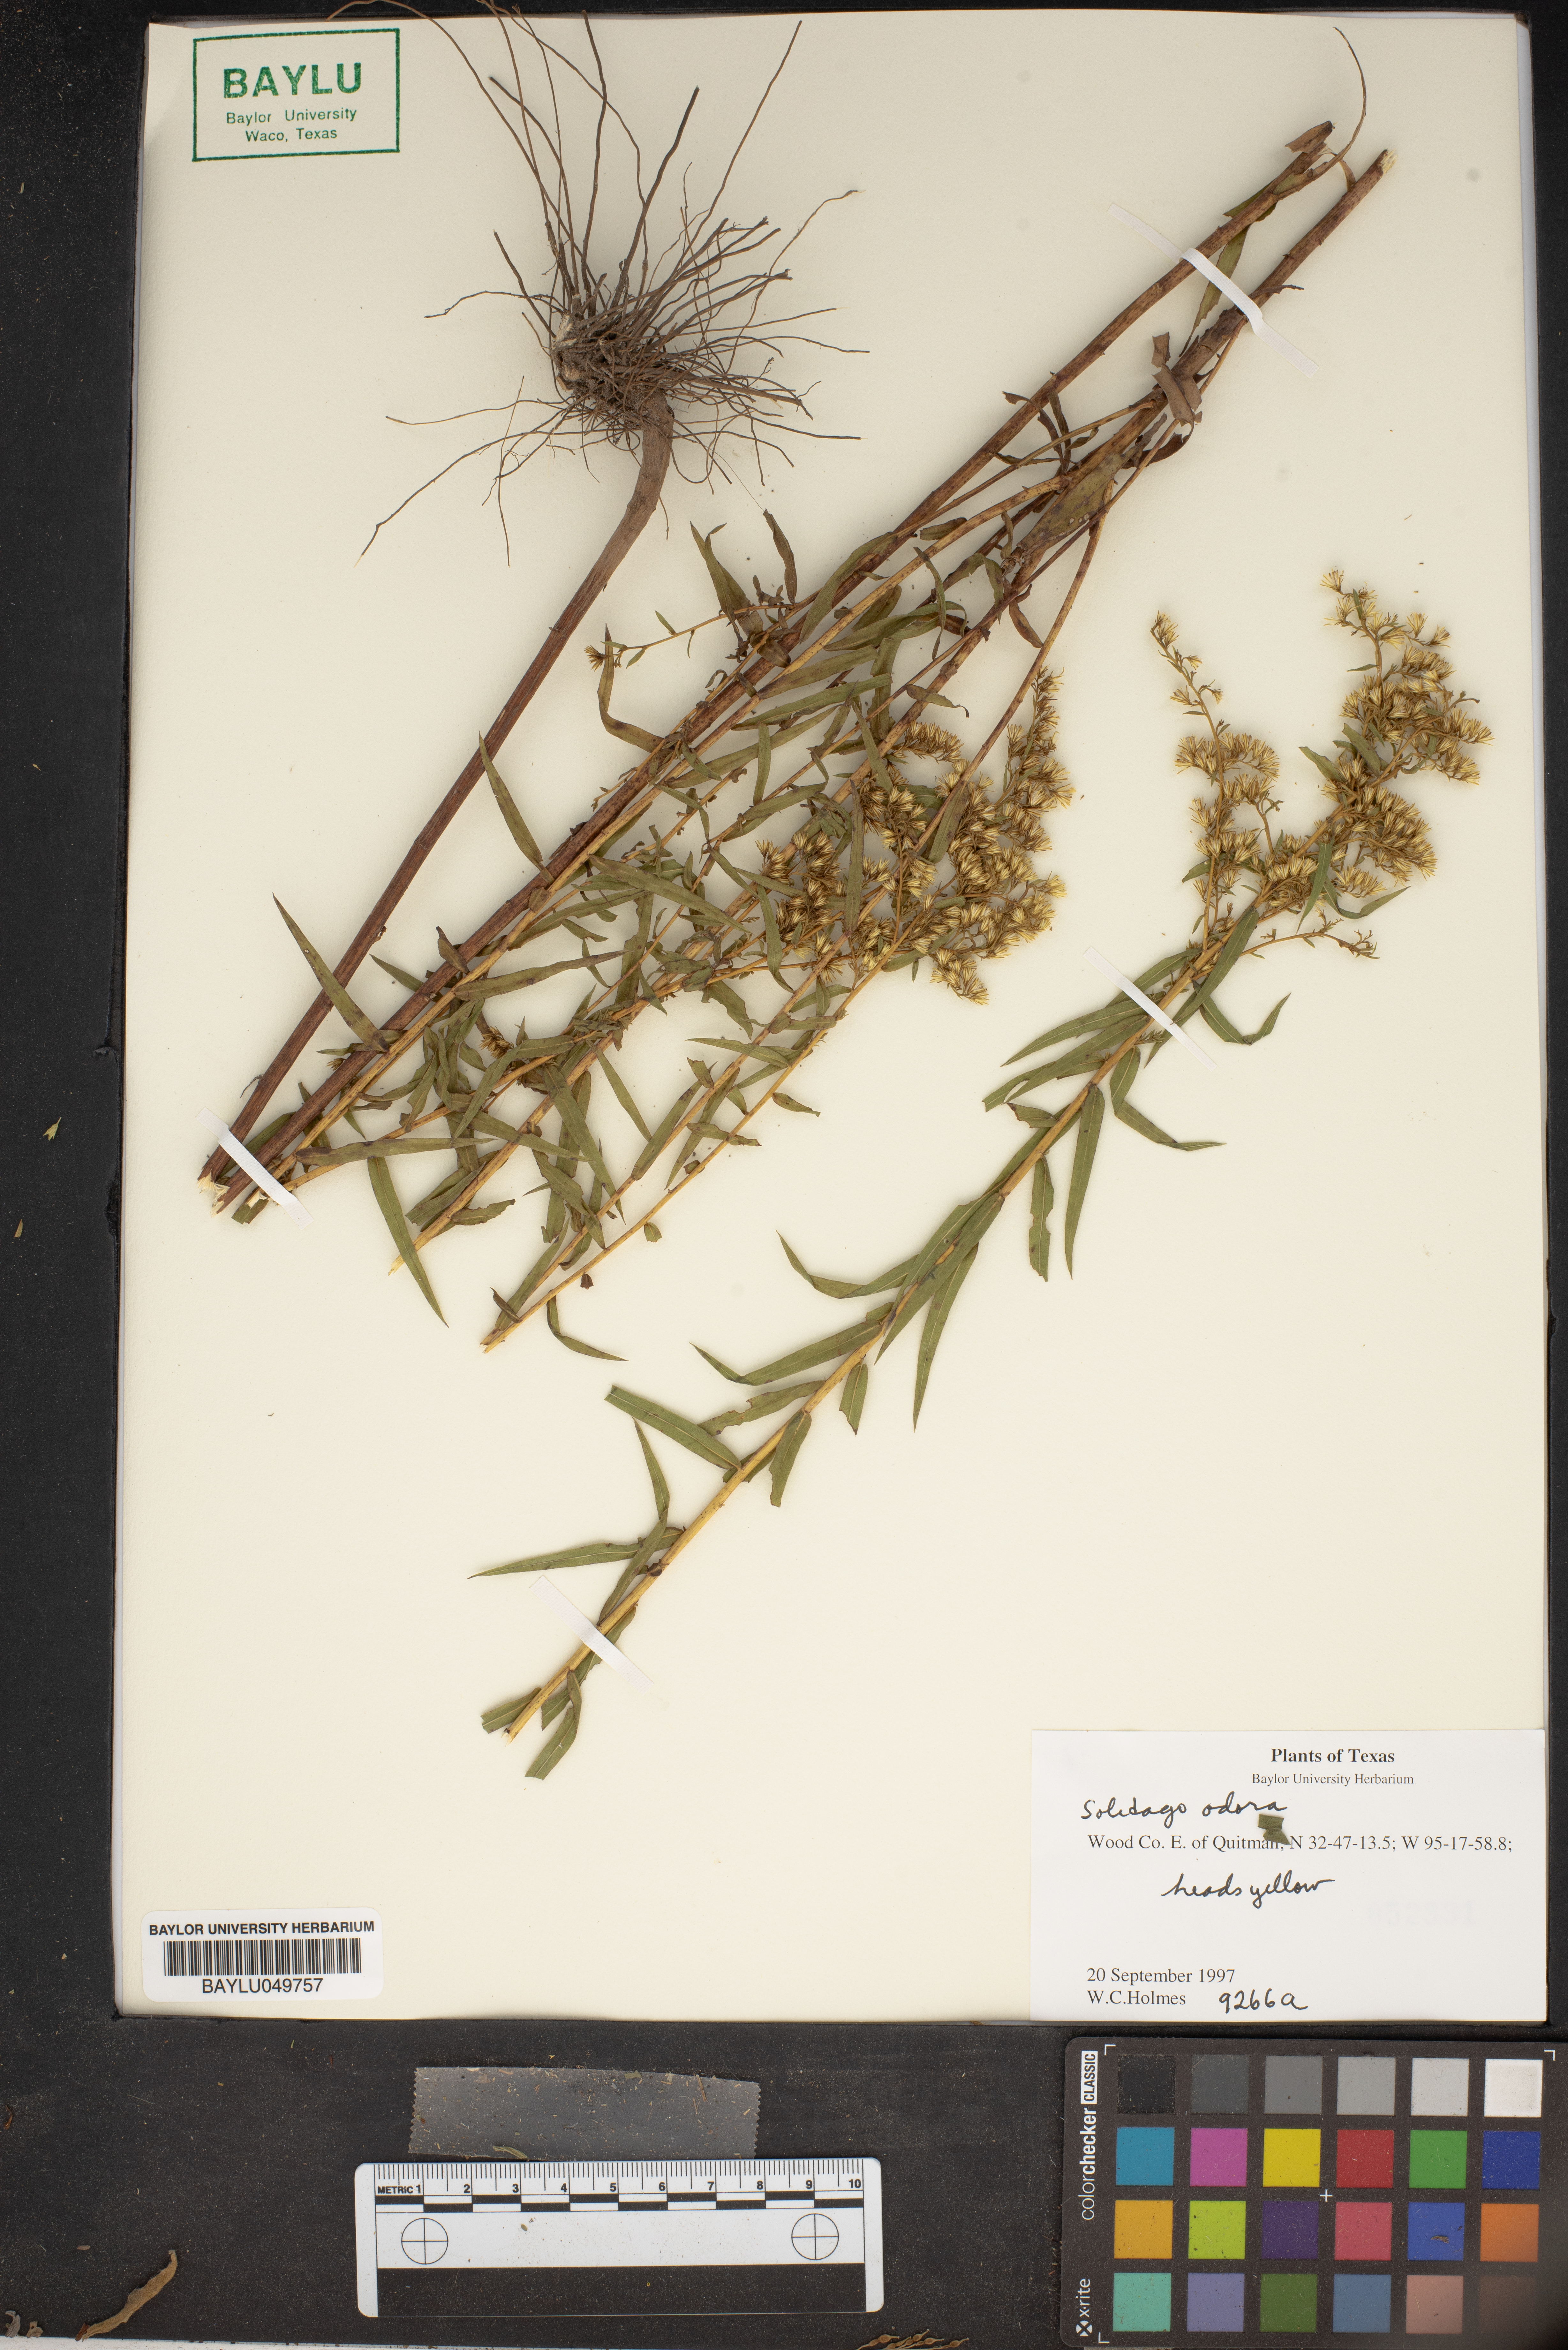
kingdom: Plantae
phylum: Tracheophyta
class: Magnoliopsida
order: Asterales
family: Asteraceae
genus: Solidago
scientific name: Solidago odora
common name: Anise-scented goldenrod
